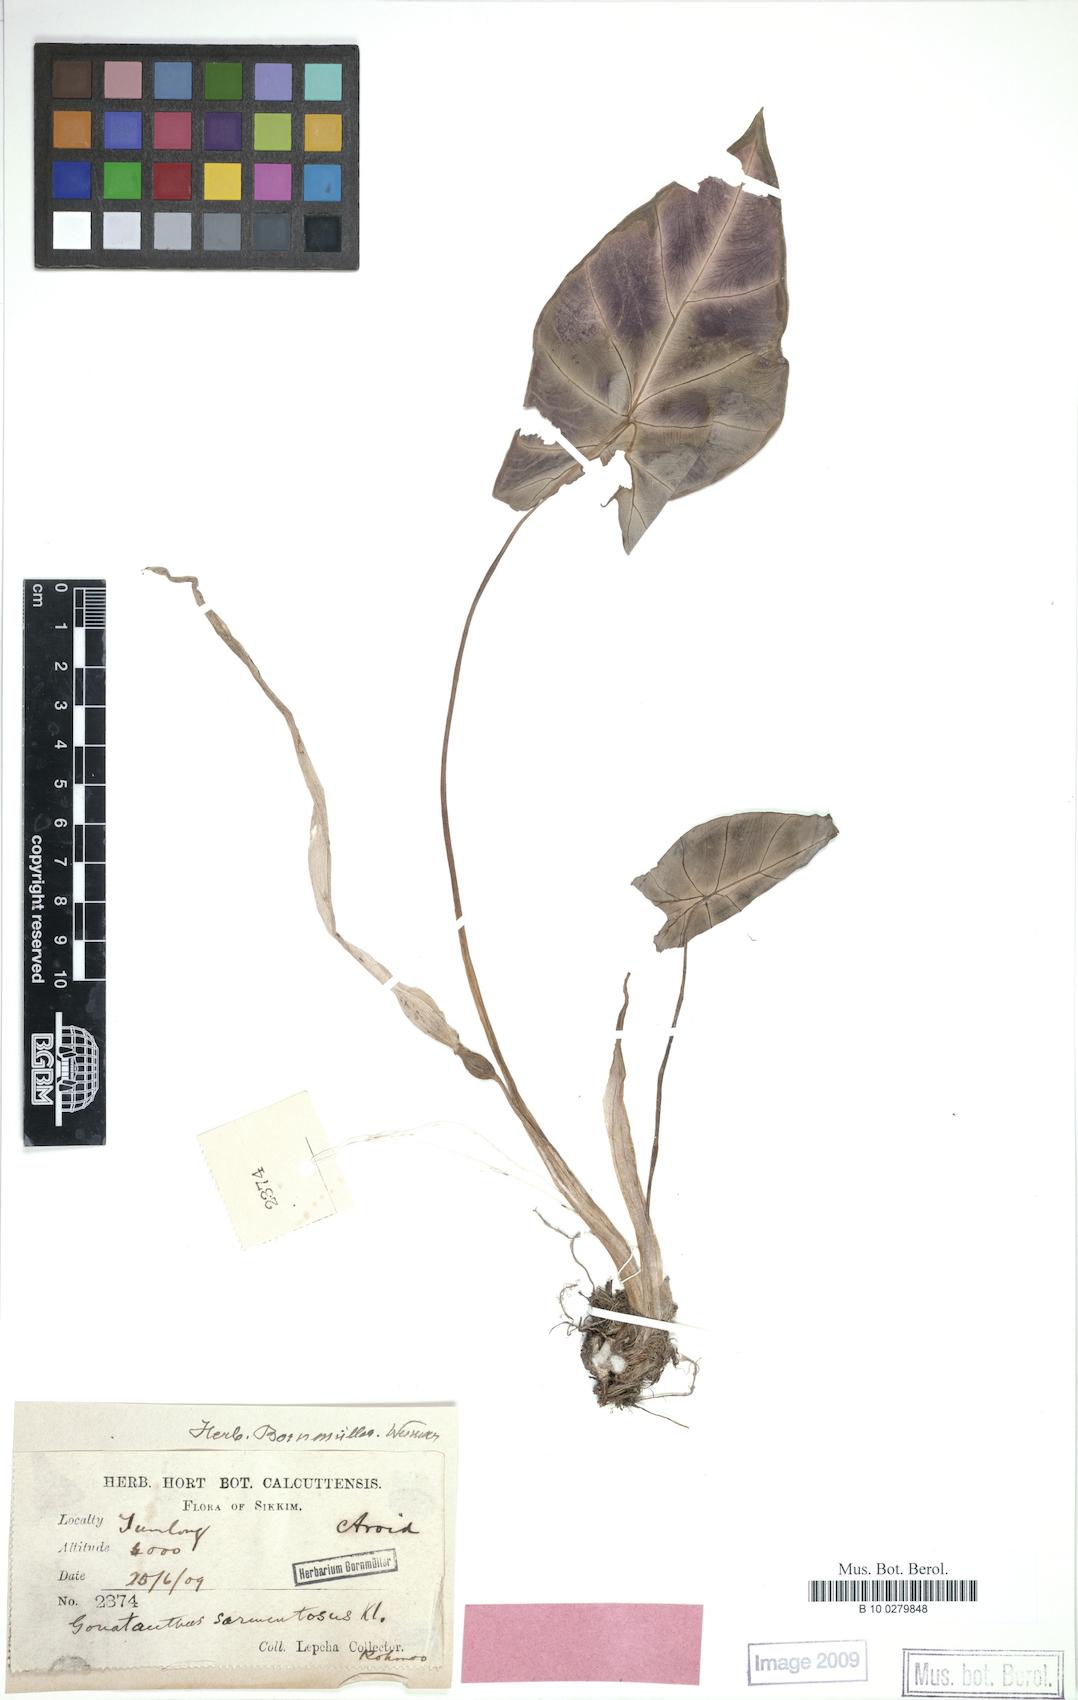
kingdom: Plantae
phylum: Tracheophyta
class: Liliopsida
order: Alismatales
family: Araceae
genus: Remusatia
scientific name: Remusatia pumila
